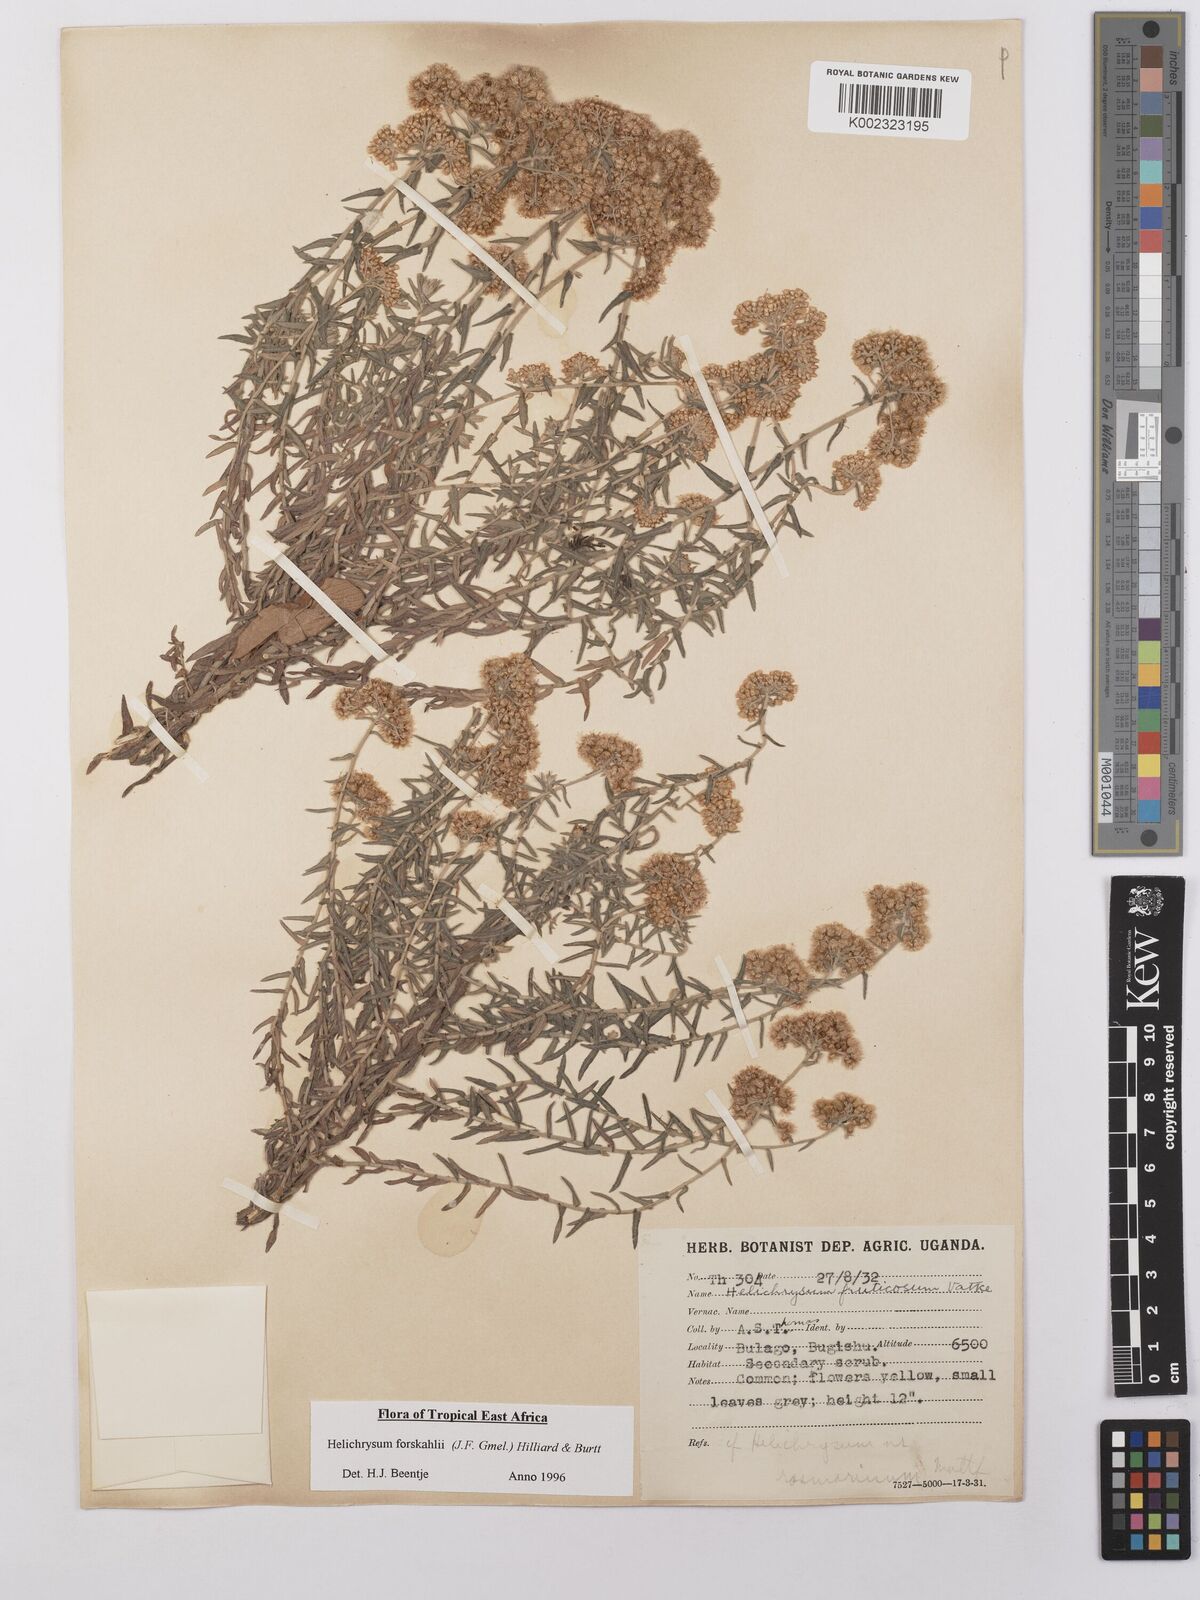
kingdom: Plantae
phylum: Tracheophyta
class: Magnoliopsida
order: Asterales
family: Asteraceae
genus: Helichrysum
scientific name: Helichrysum forskahlii
